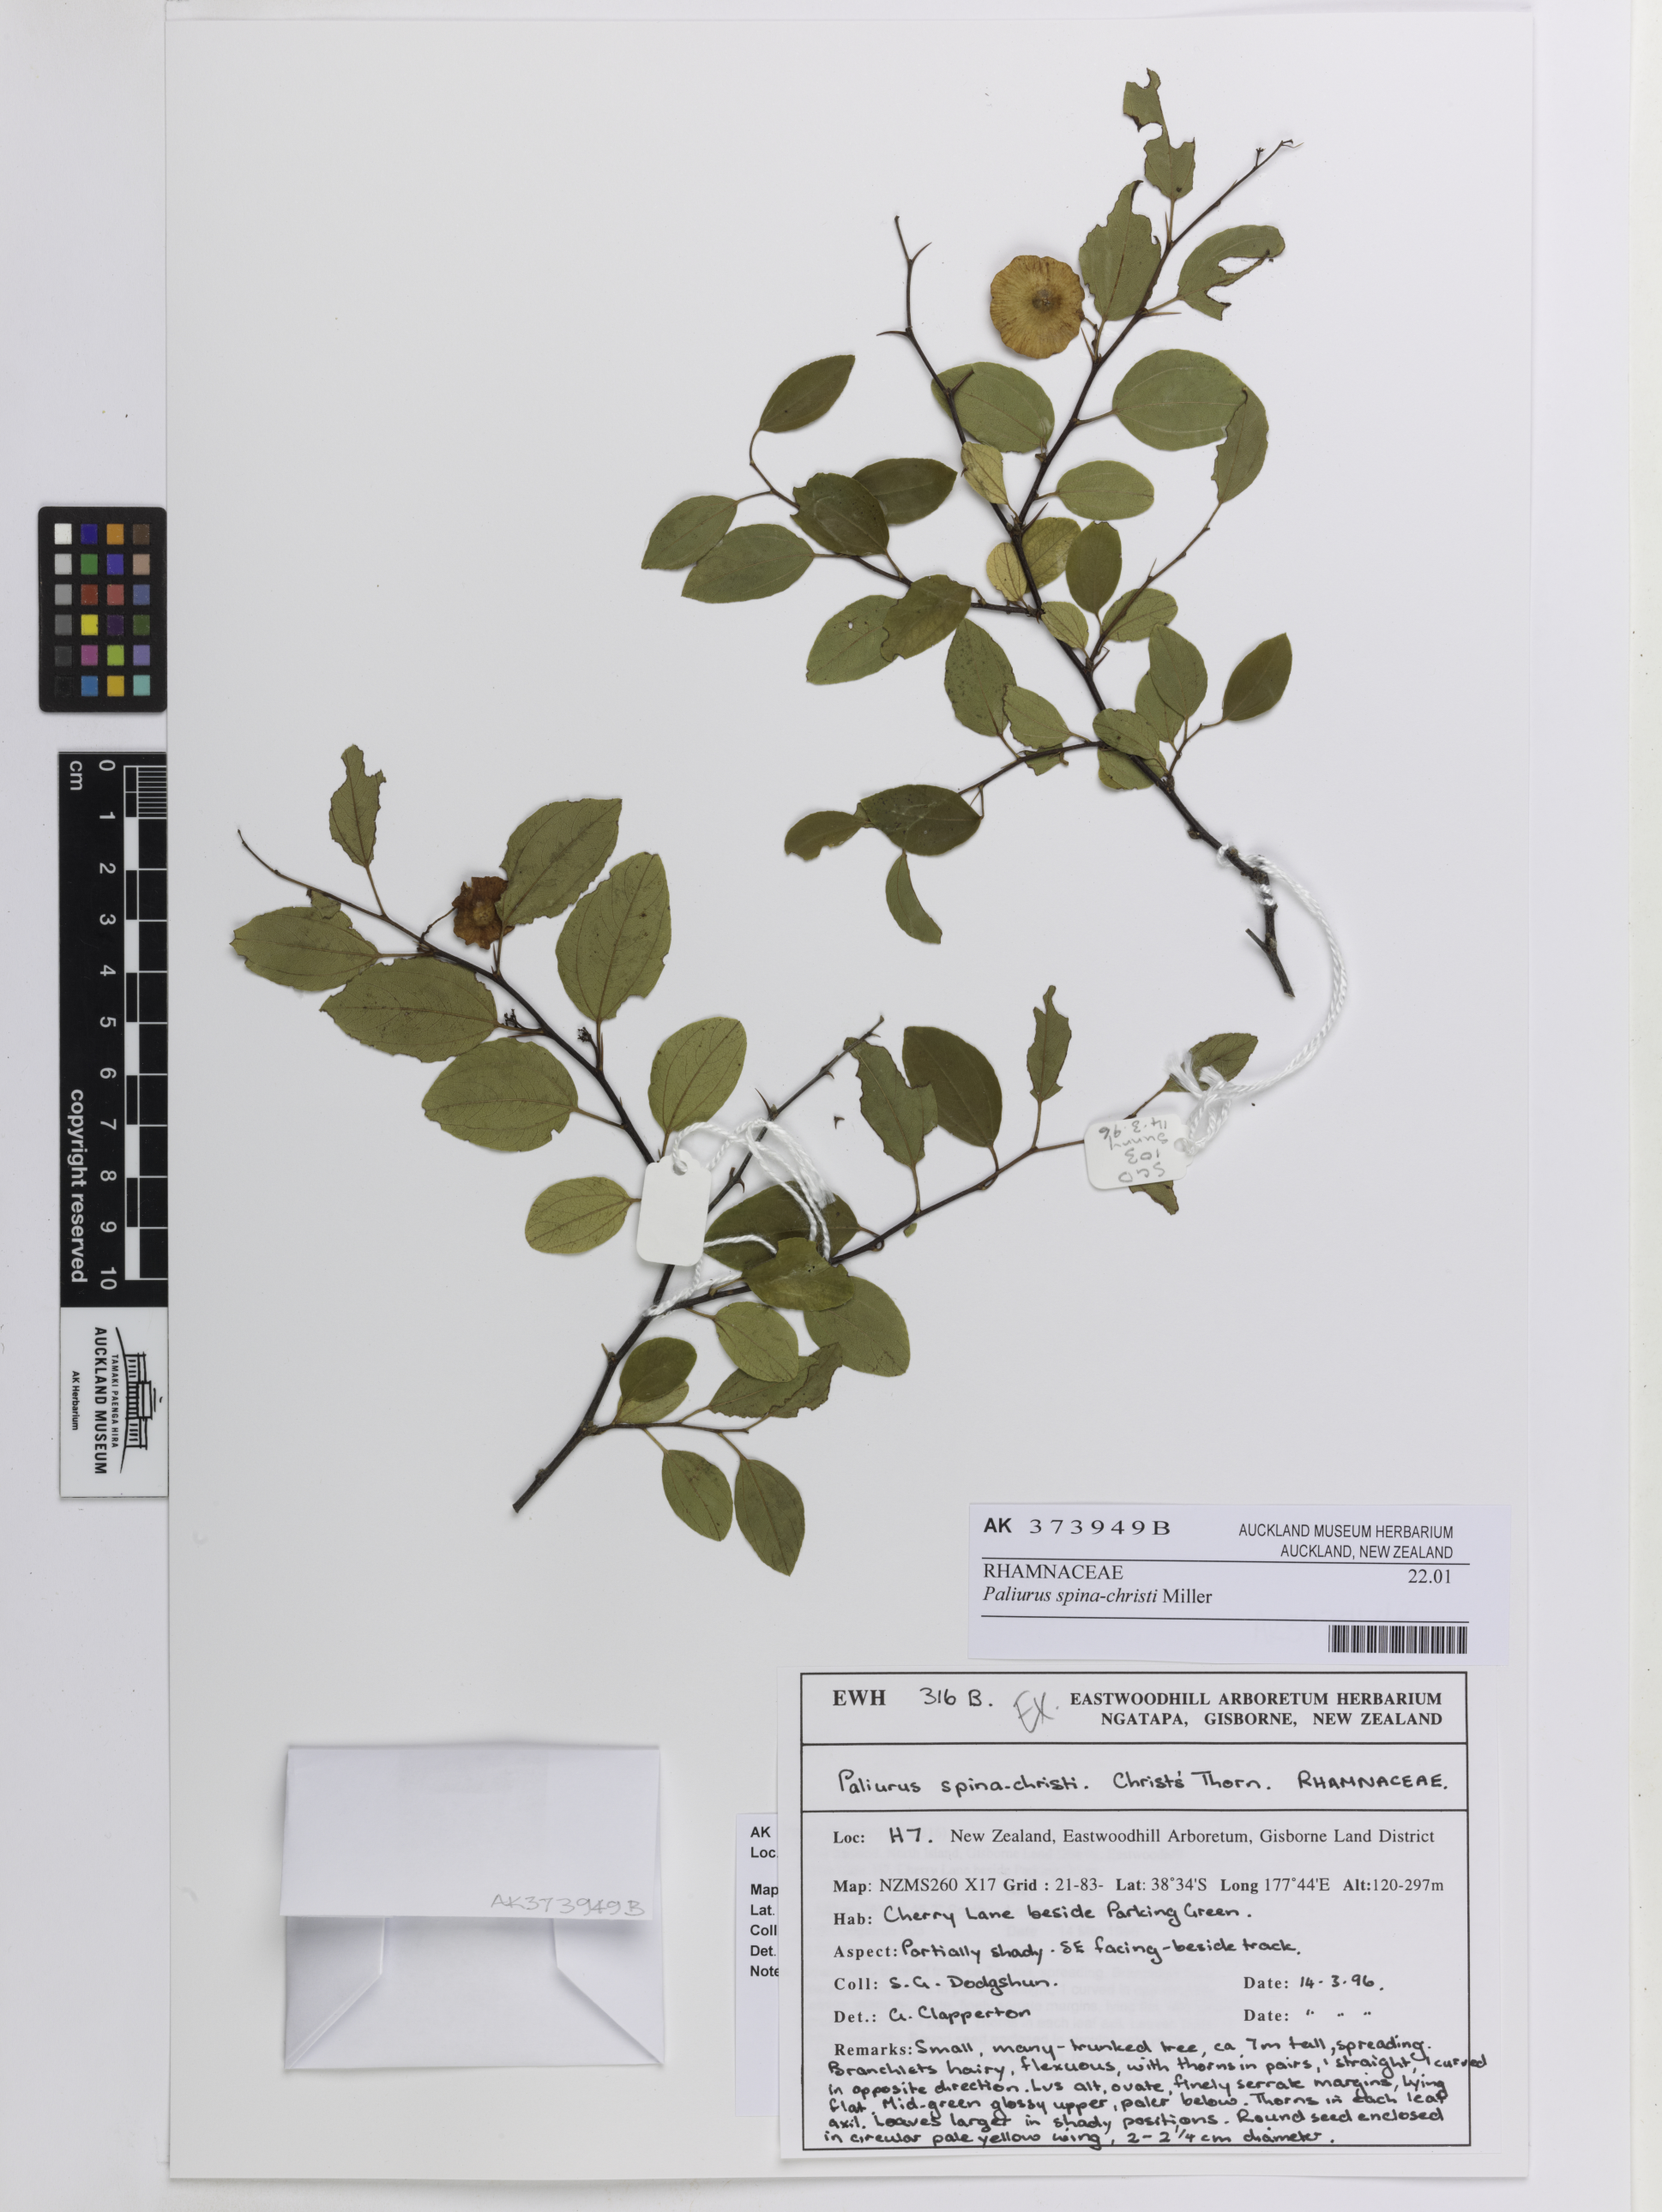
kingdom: Plantae
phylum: Tracheophyta
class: Magnoliopsida
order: Rosales
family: Rhamnaceae
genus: Paliurus
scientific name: Paliurus spina-christi
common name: Jeruselem thorn
